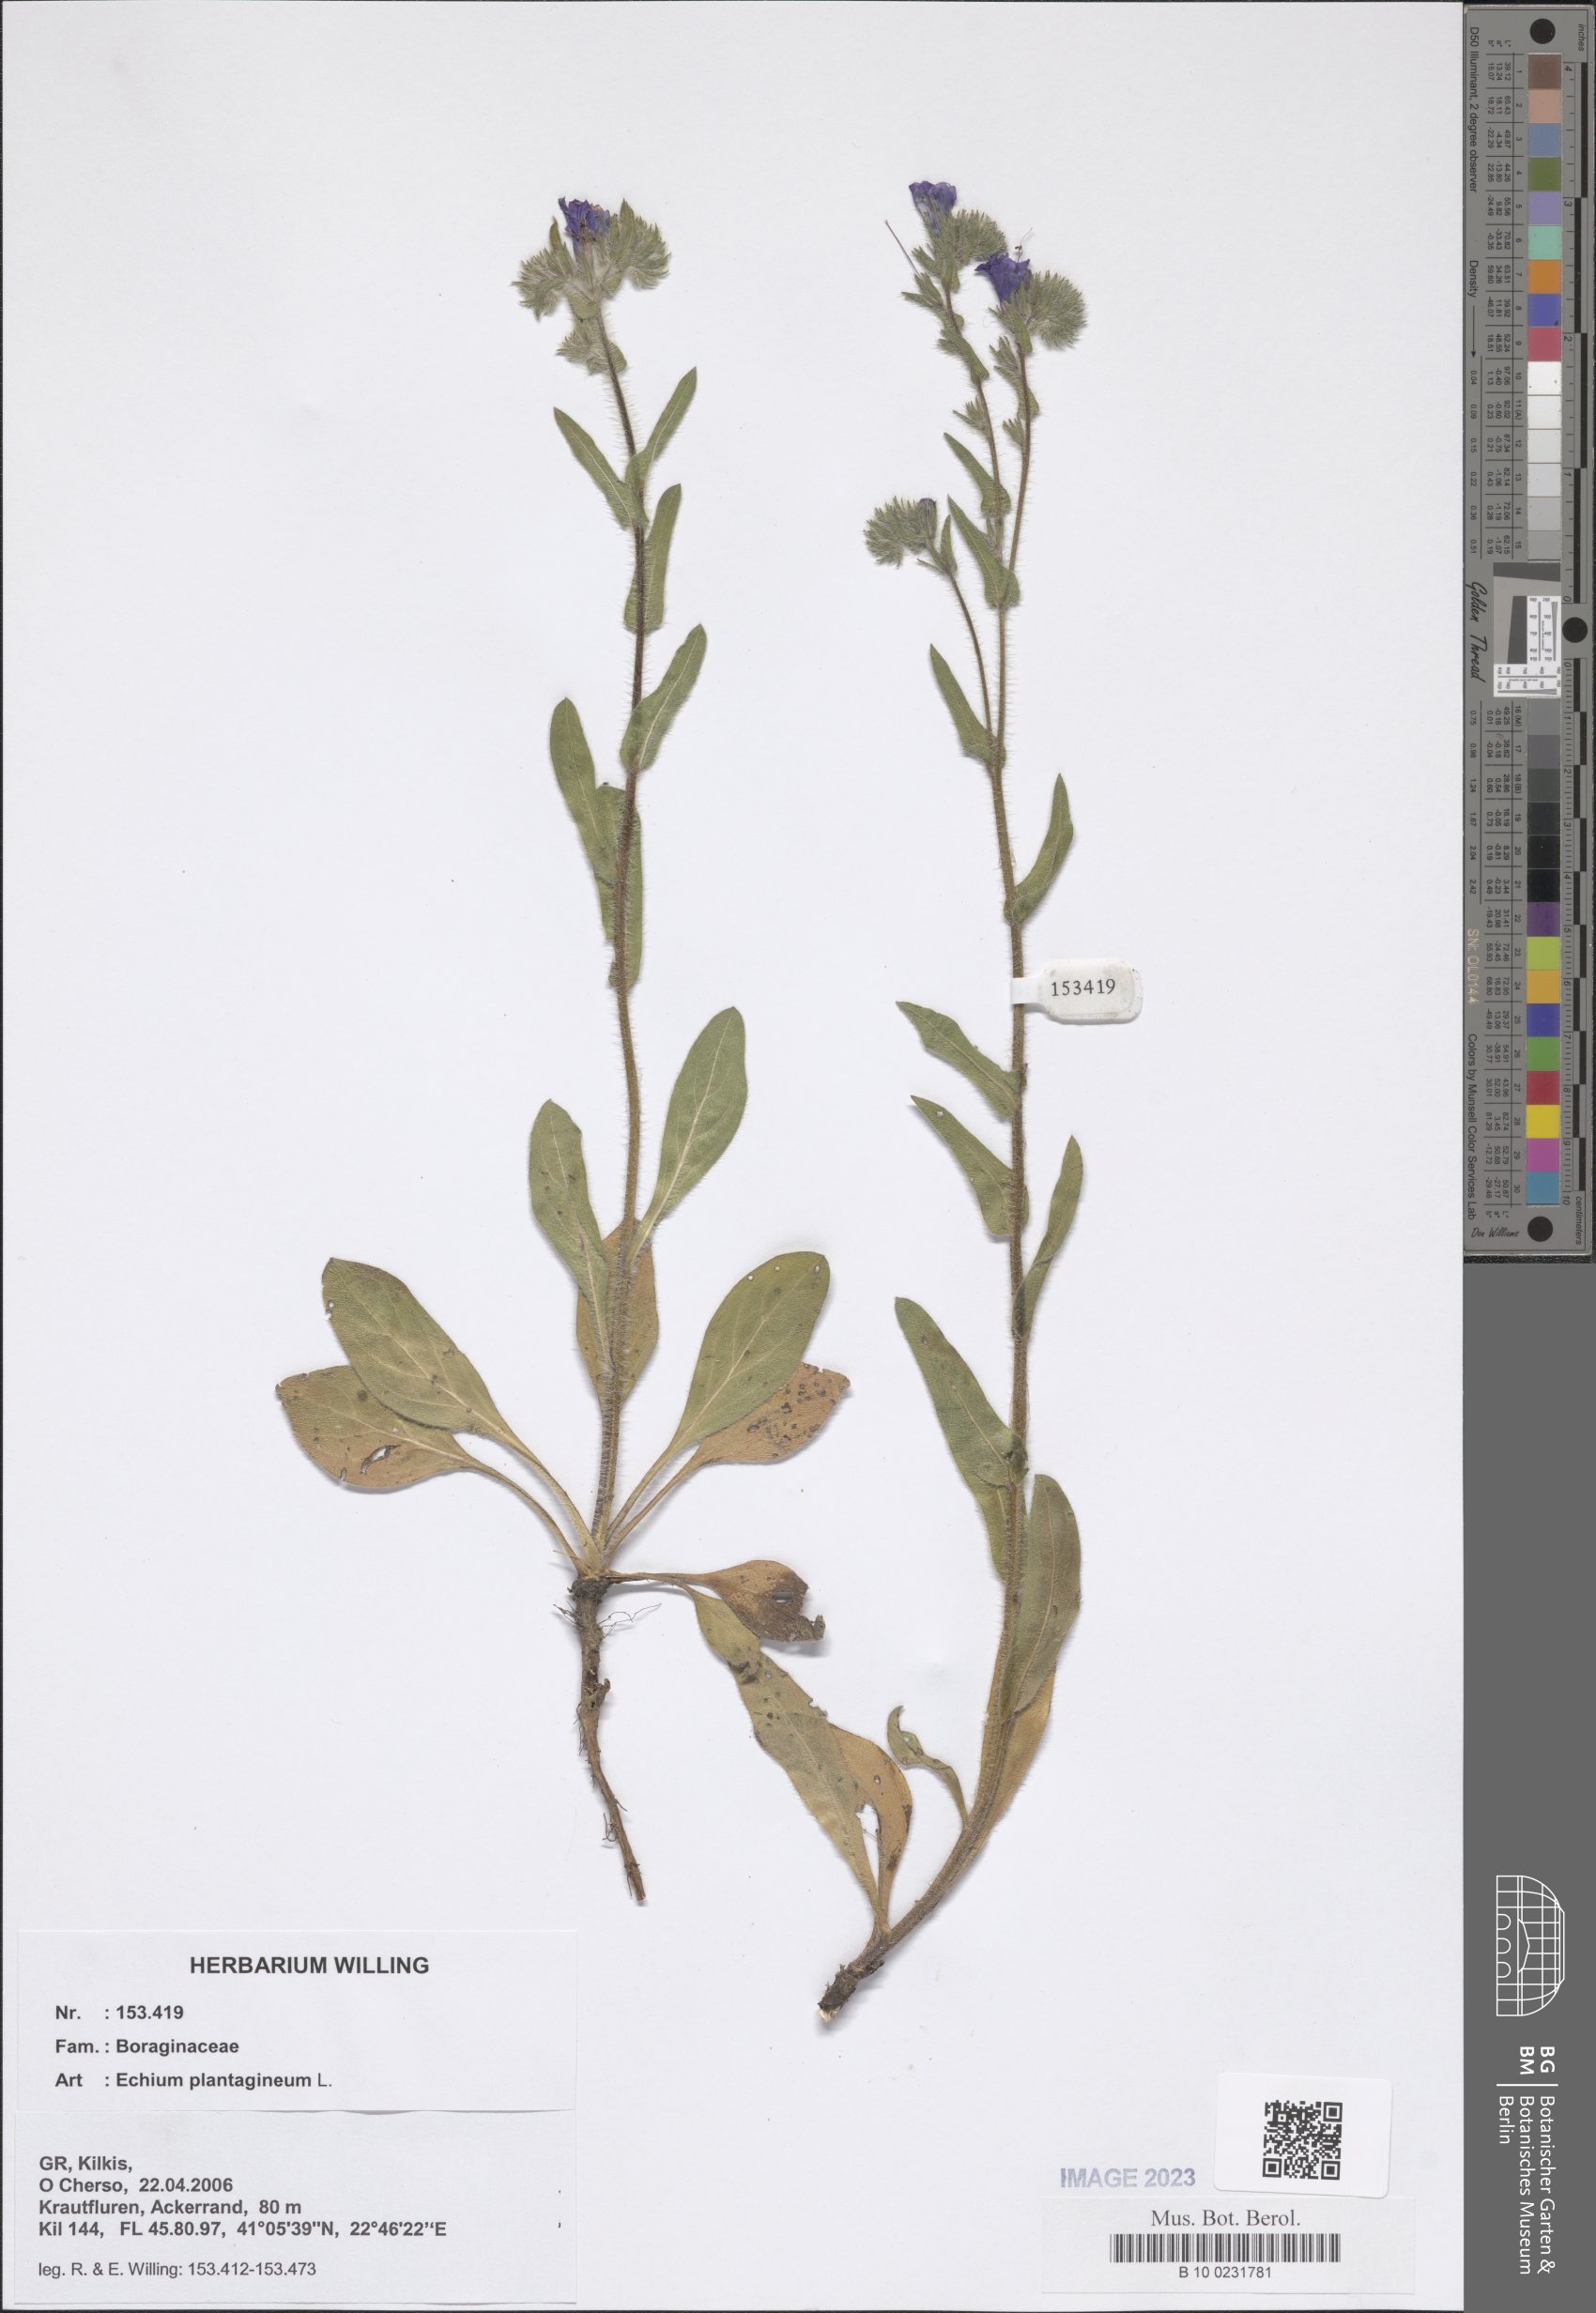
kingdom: Plantae
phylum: Tracheophyta
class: Magnoliopsida
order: Boraginales
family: Boraginaceae
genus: Echium
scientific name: Echium plantagineum
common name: Purple viper's-bugloss
